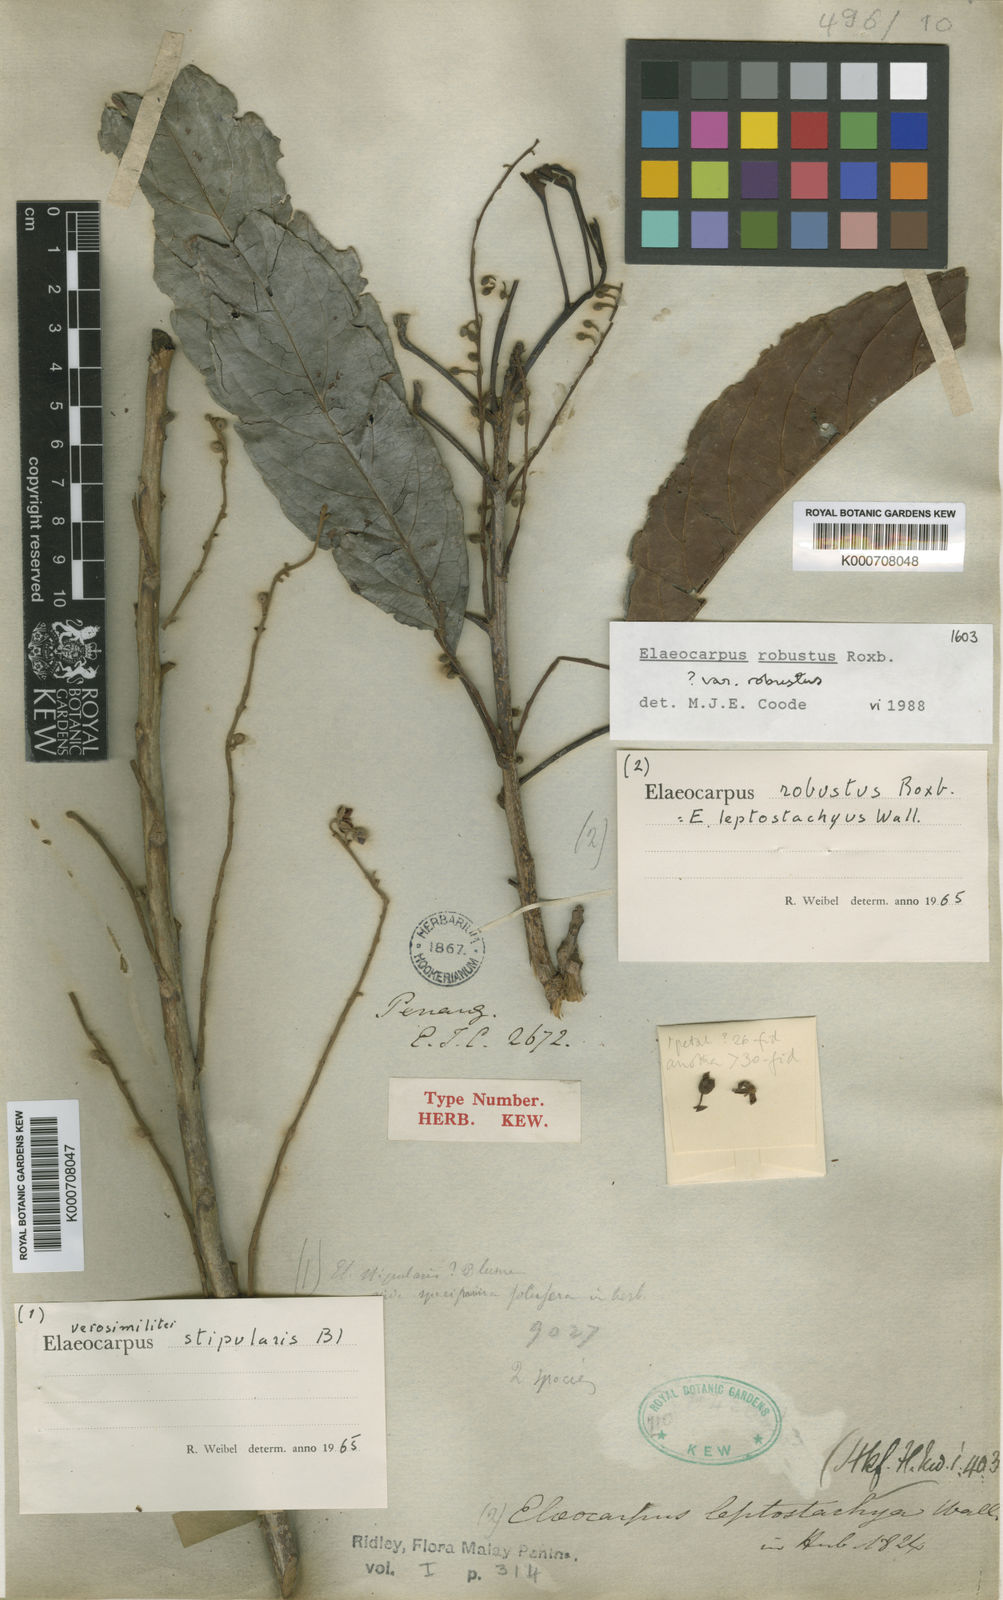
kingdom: Plantae
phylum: Tracheophyta
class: Magnoliopsida
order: Oxalidales
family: Elaeocarpaceae
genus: Elaeocarpus
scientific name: Elaeocarpus robustus
